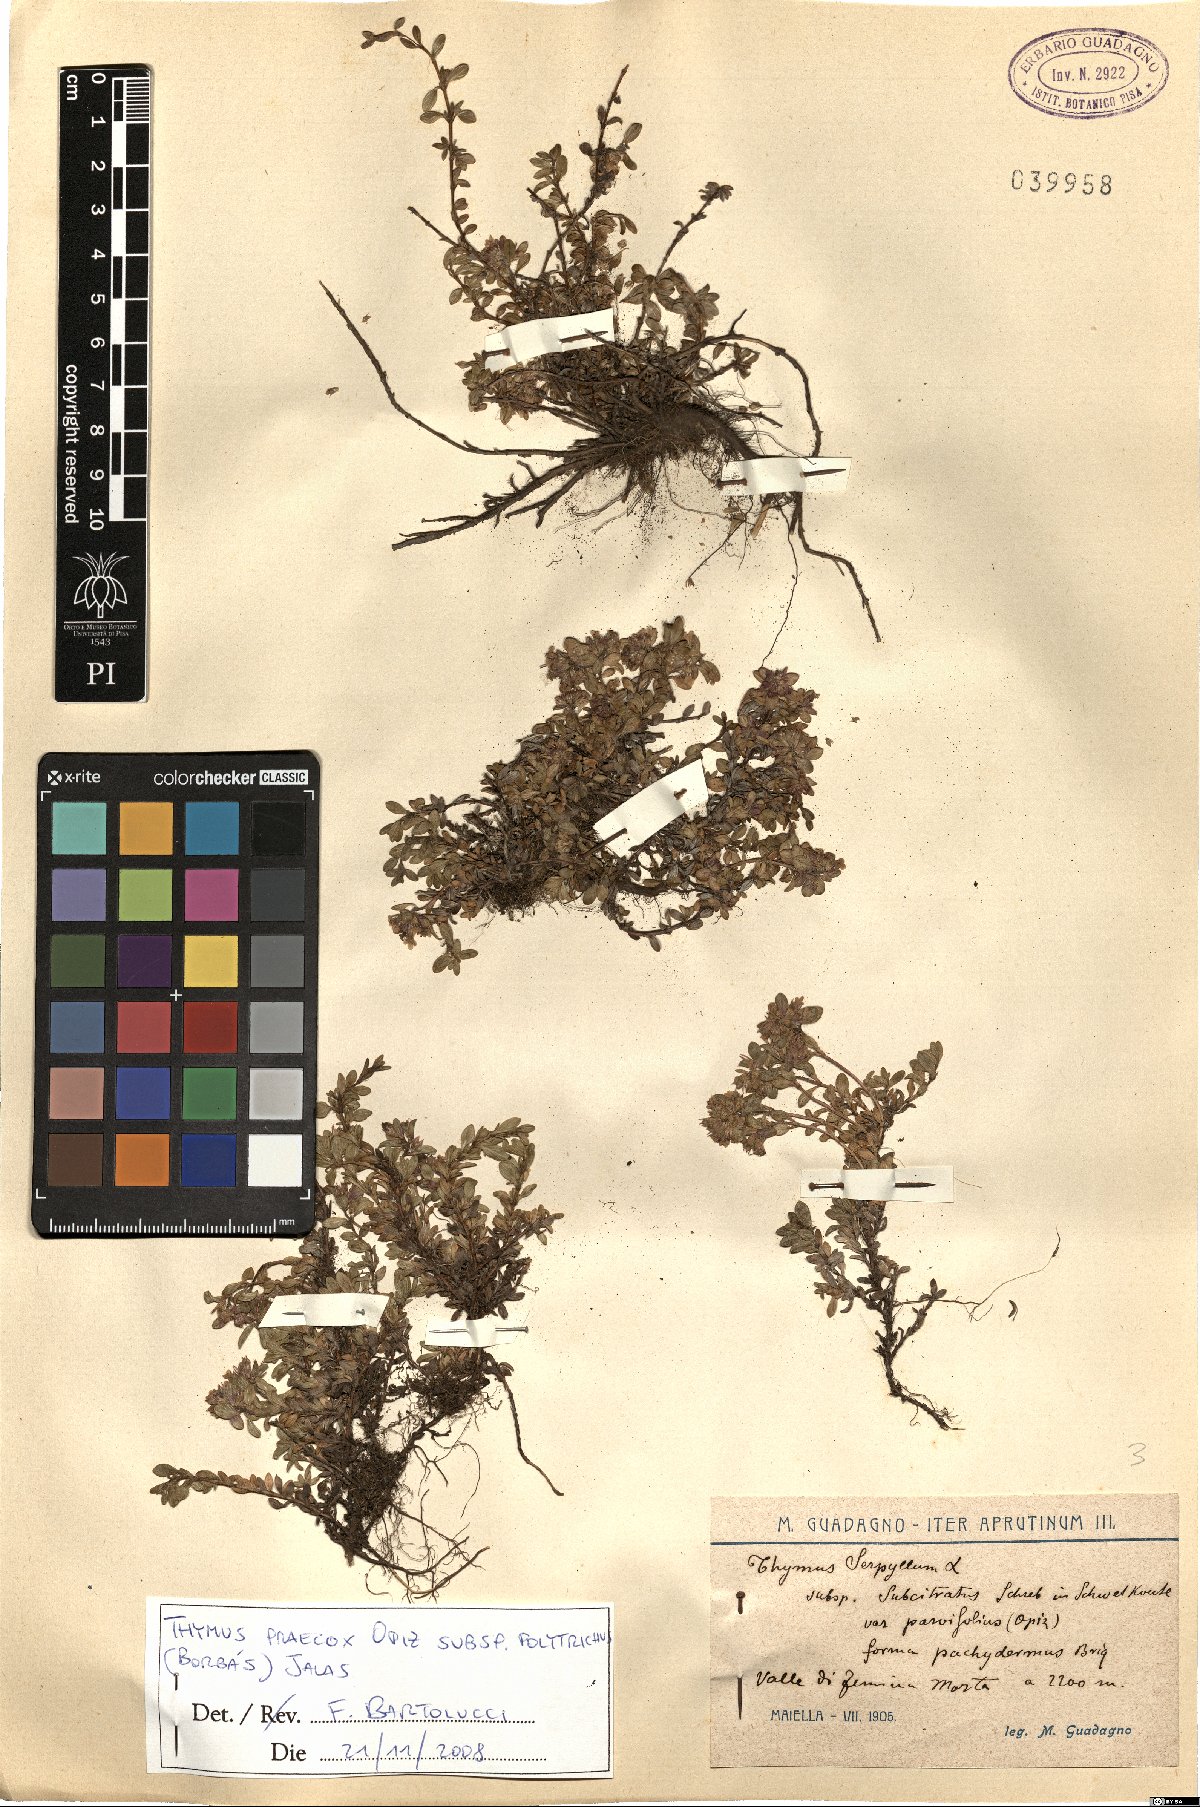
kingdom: Plantae
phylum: Tracheophyta
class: Magnoliopsida
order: Lamiales
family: Lamiaceae
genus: Thymus
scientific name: Thymus praecox
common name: Wild thyme
